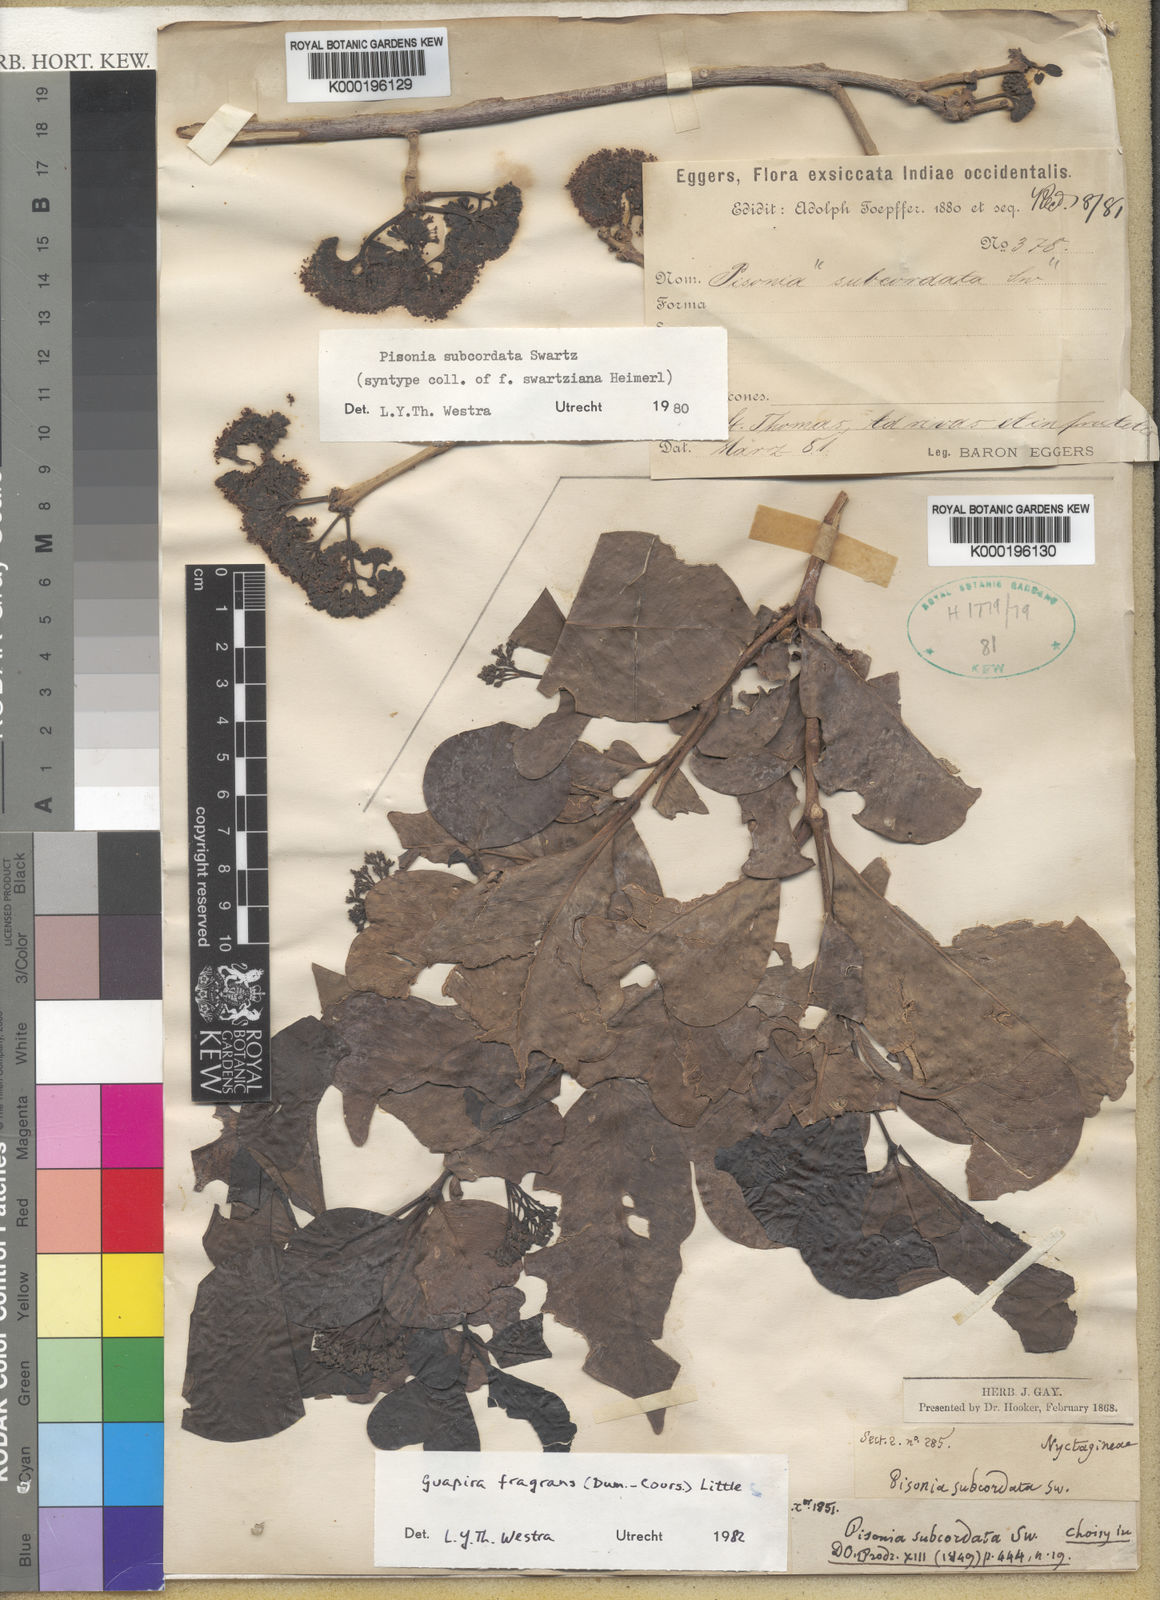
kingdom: Plantae
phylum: Tracheophyta
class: Magnoliopsida
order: Caryophyllales
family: Nyctaginaceae
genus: Guapira
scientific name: Guapira fragrans
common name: Black loblolly tree
